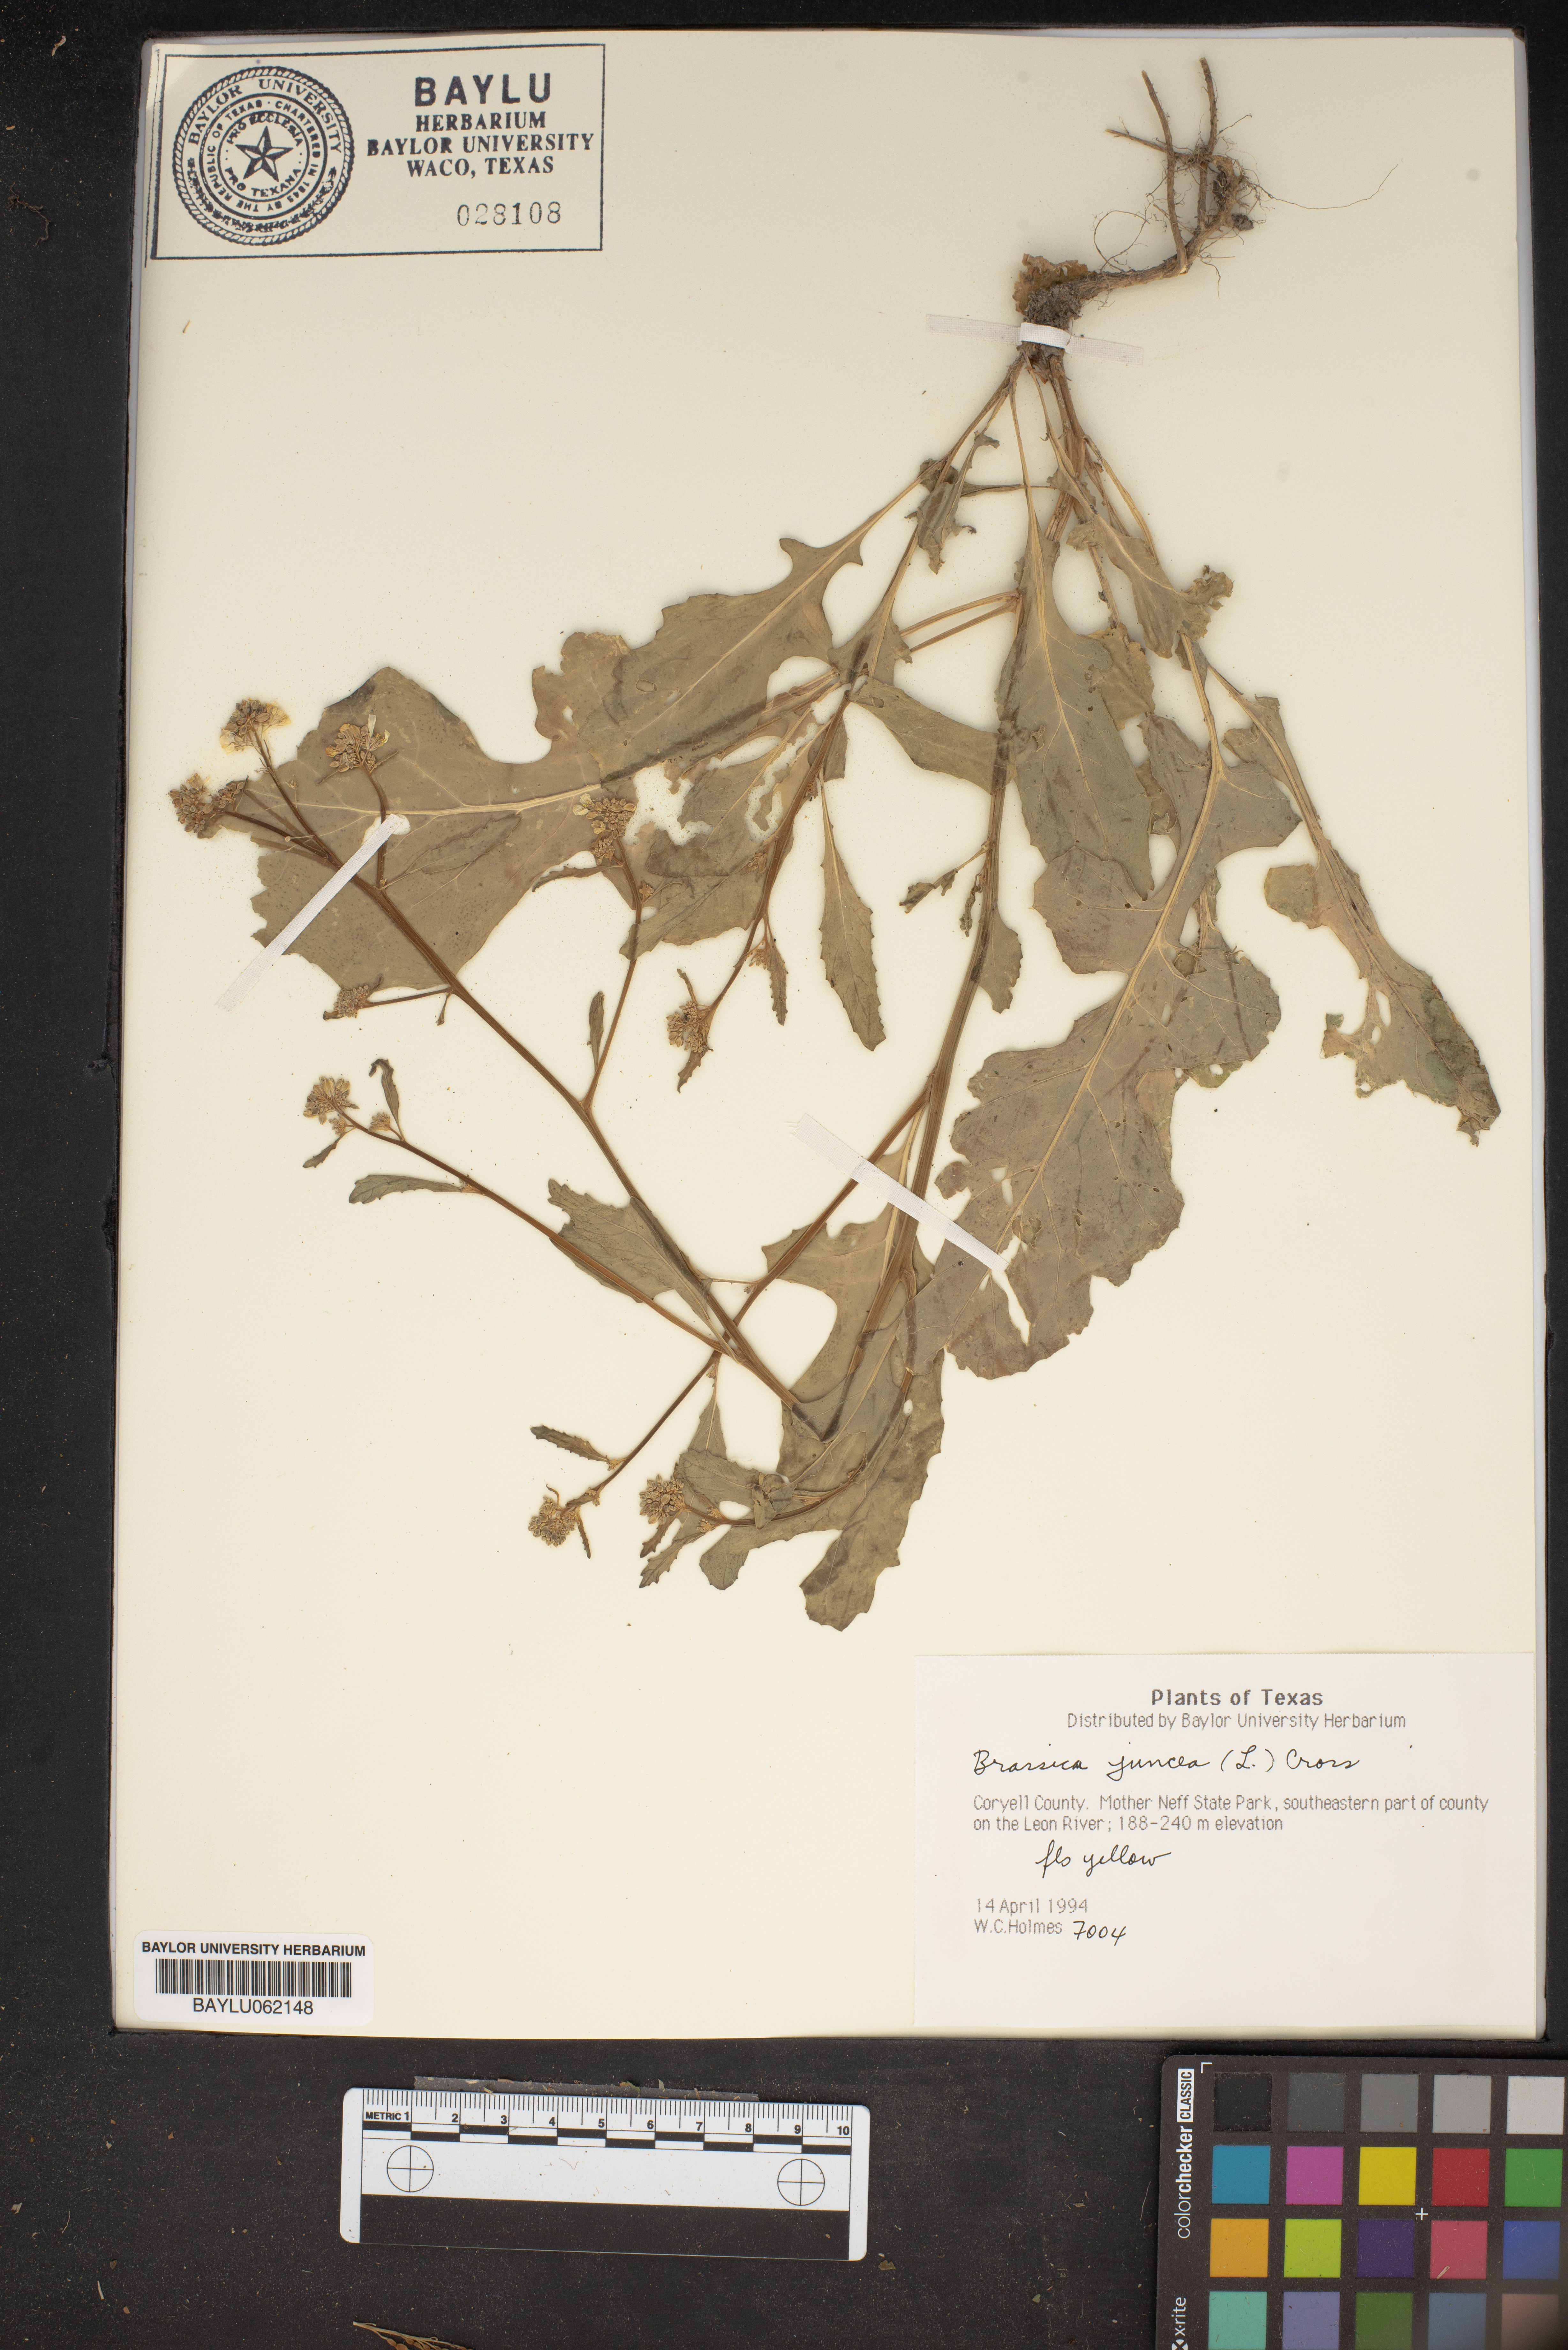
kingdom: Plantae
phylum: Tracheophyta
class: Magnoliopsida
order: Brassicales
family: Brassicaceae
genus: Brassica
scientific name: Brassica juncea
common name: Brown mustard
